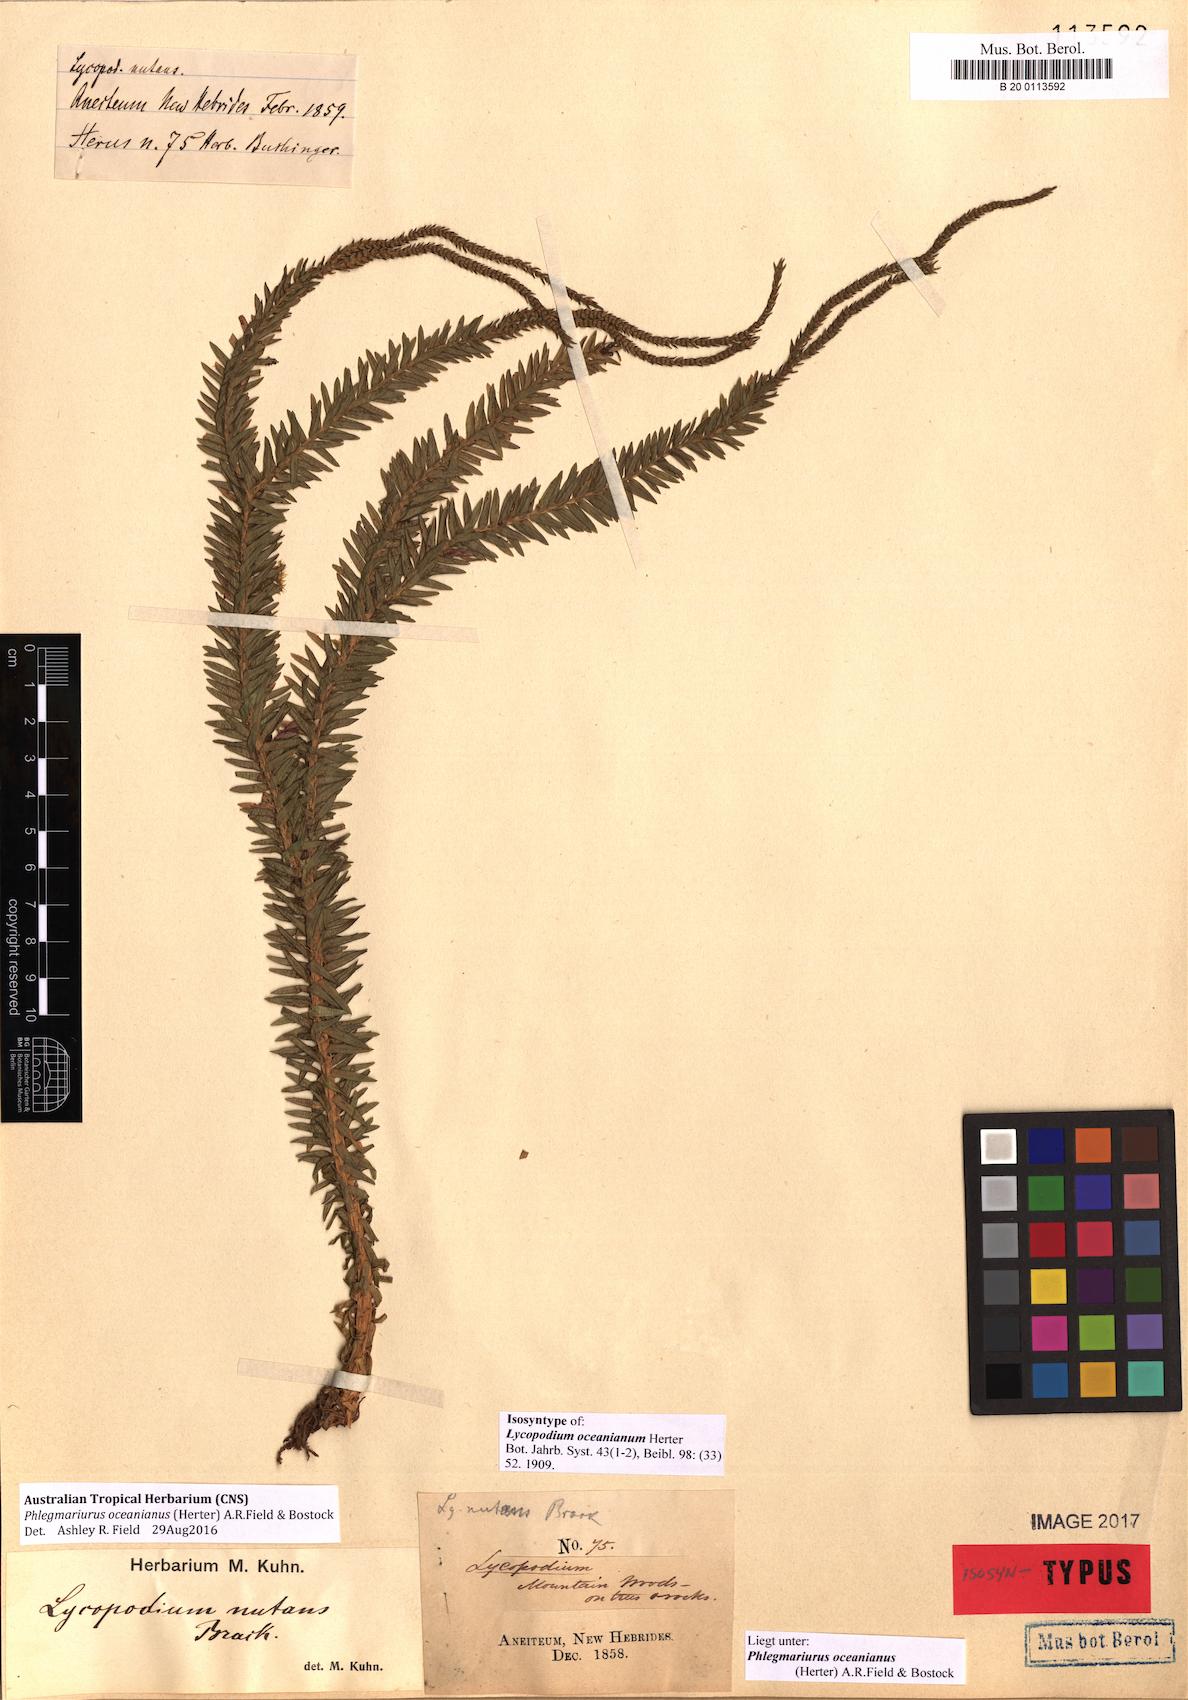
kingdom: Plantae
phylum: Tracheophyta
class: Lycopodiopsida
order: Lycopodiales
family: Lycopodiaceae
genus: Phlegmariurus
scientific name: Phlegmariurus oceanianus
